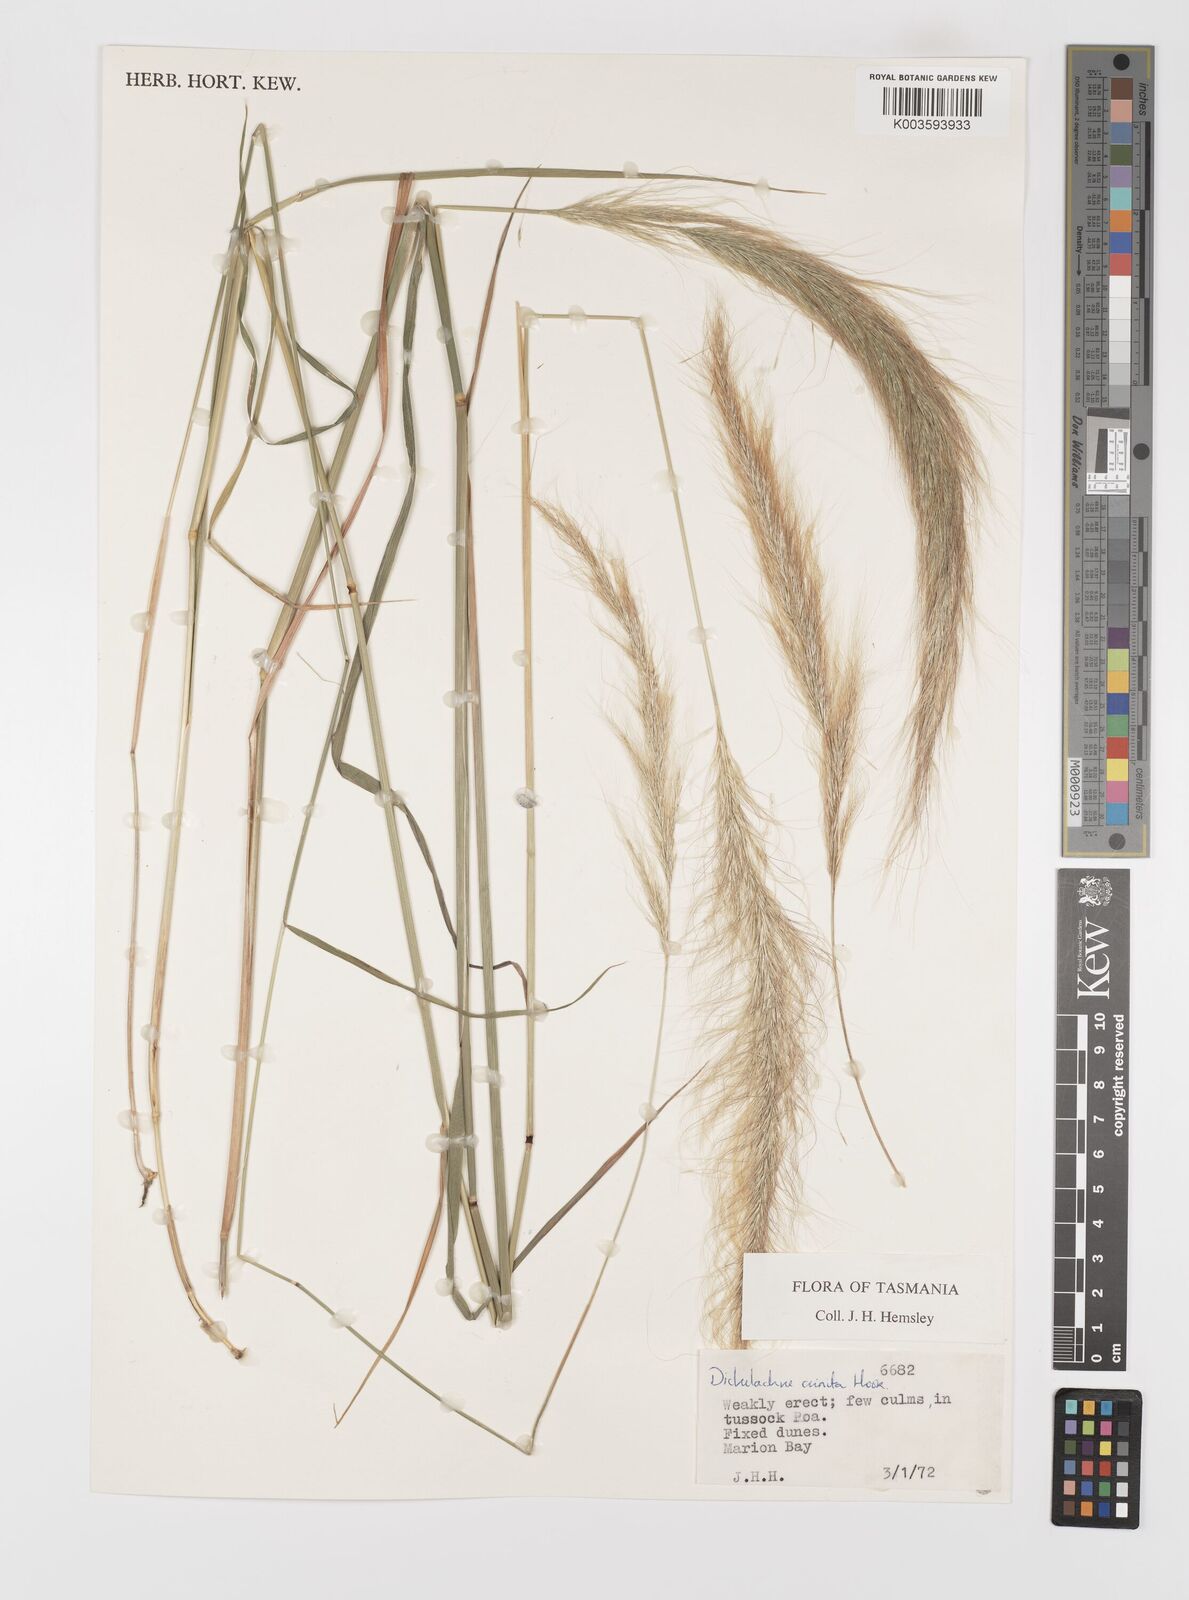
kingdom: Plantae
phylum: Tracheophyta
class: Liliopsida
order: Poales
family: Poaceae
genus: Dichelachne
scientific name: Dichelachne crinita
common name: Clovenfoot plumegrass
